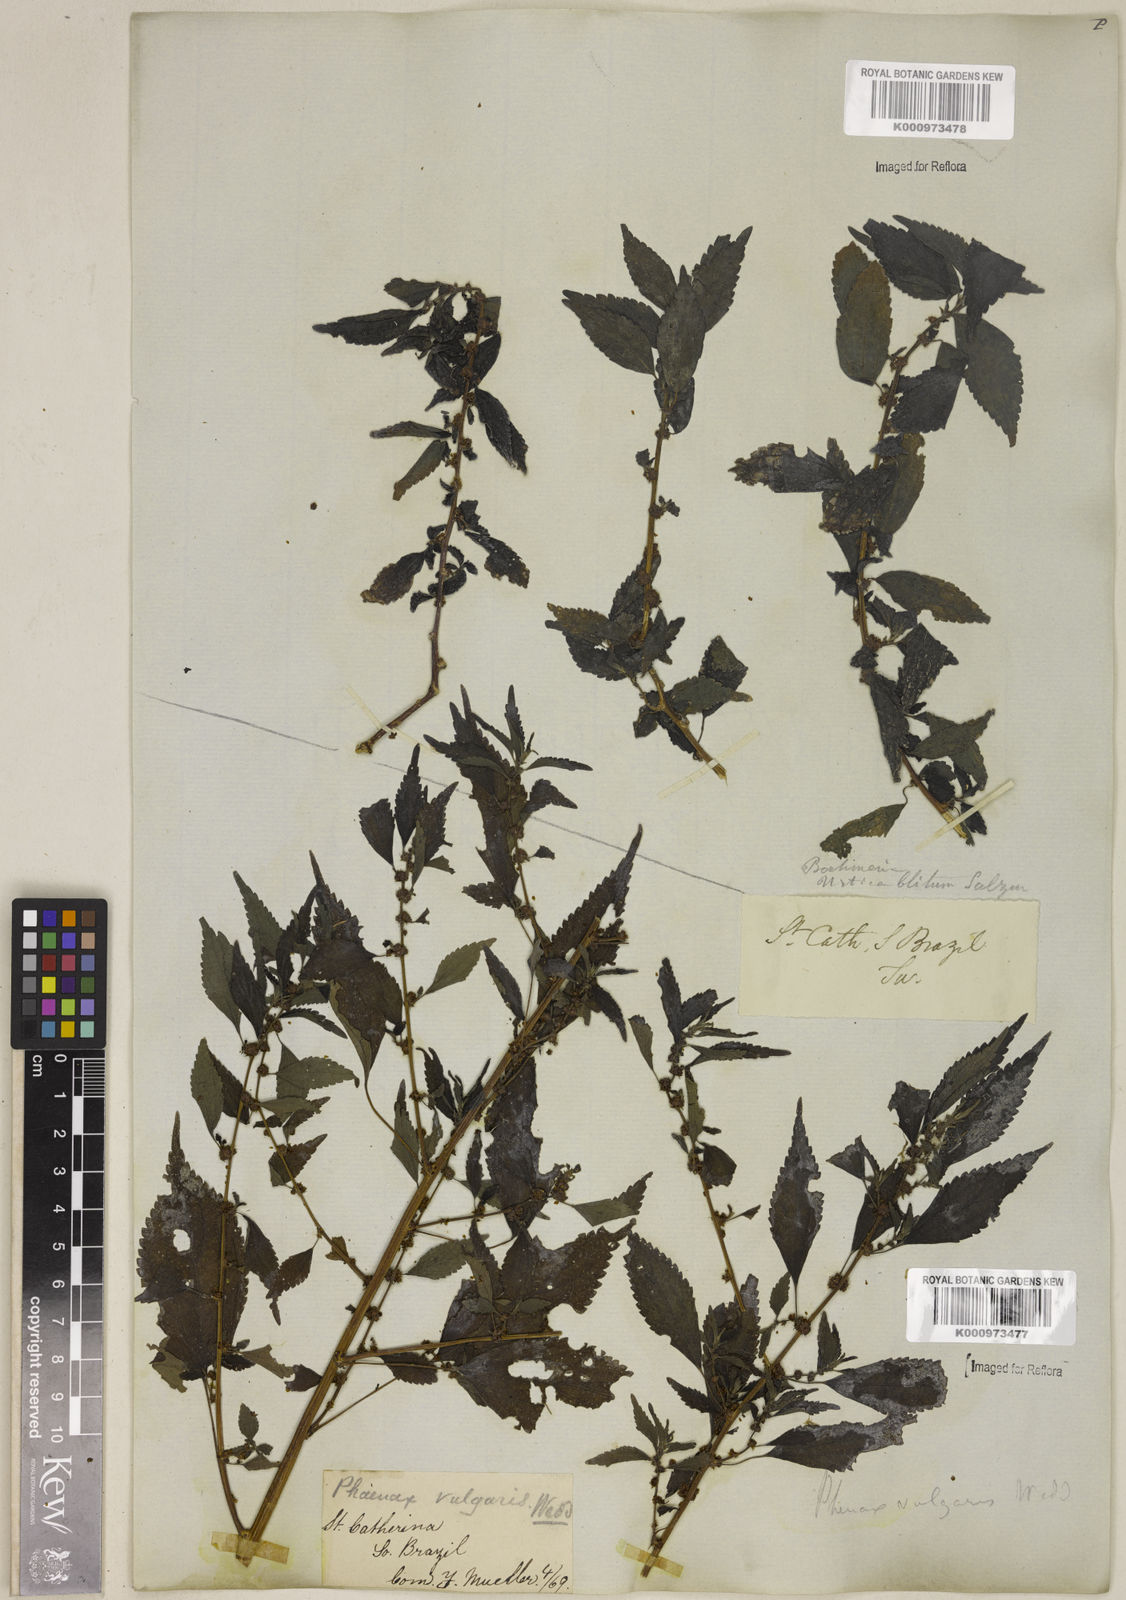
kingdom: Plantae
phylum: Tracheophyta
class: Magnoliopsida
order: Rosales
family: Urticaceae
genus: Phenax
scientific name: Phenax sonneratii
